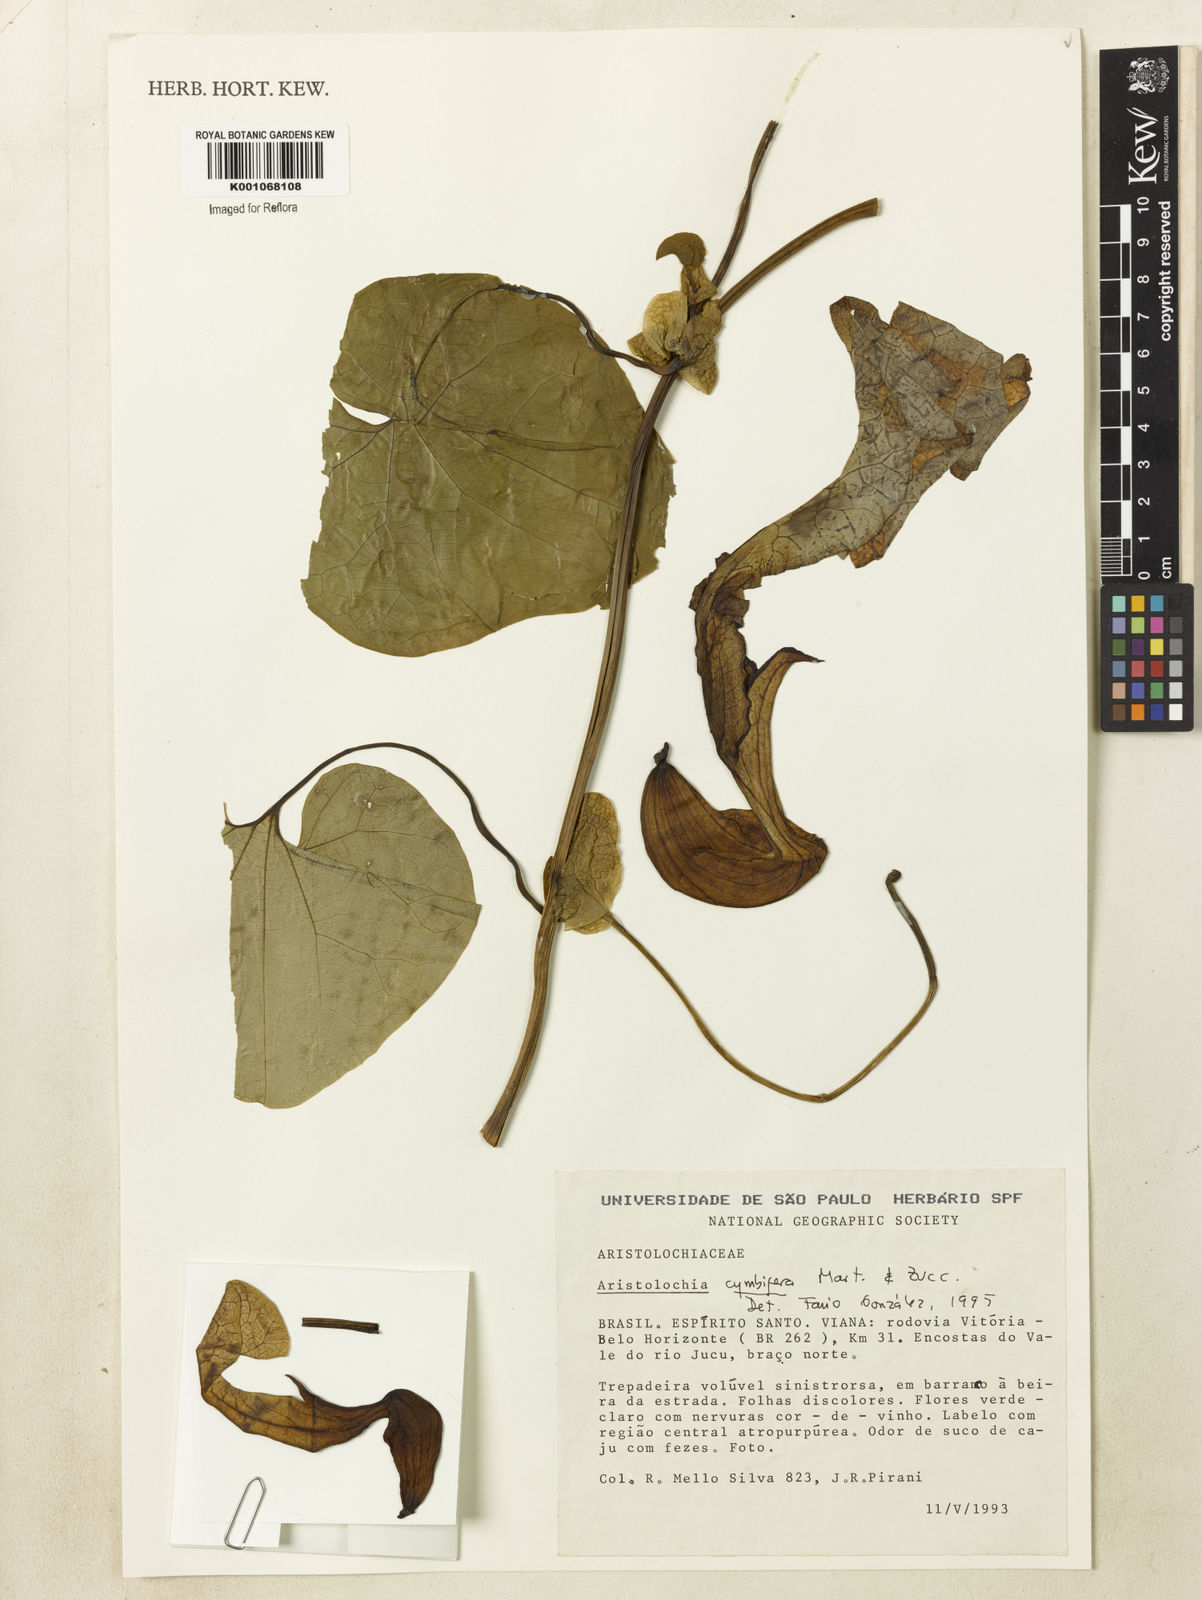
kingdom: Plantae
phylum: Tracheophyta
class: Magnoliopsida
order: Piperales
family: Aristolochiaceae
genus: Aristolochia
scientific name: Aristolochia cymbifera
